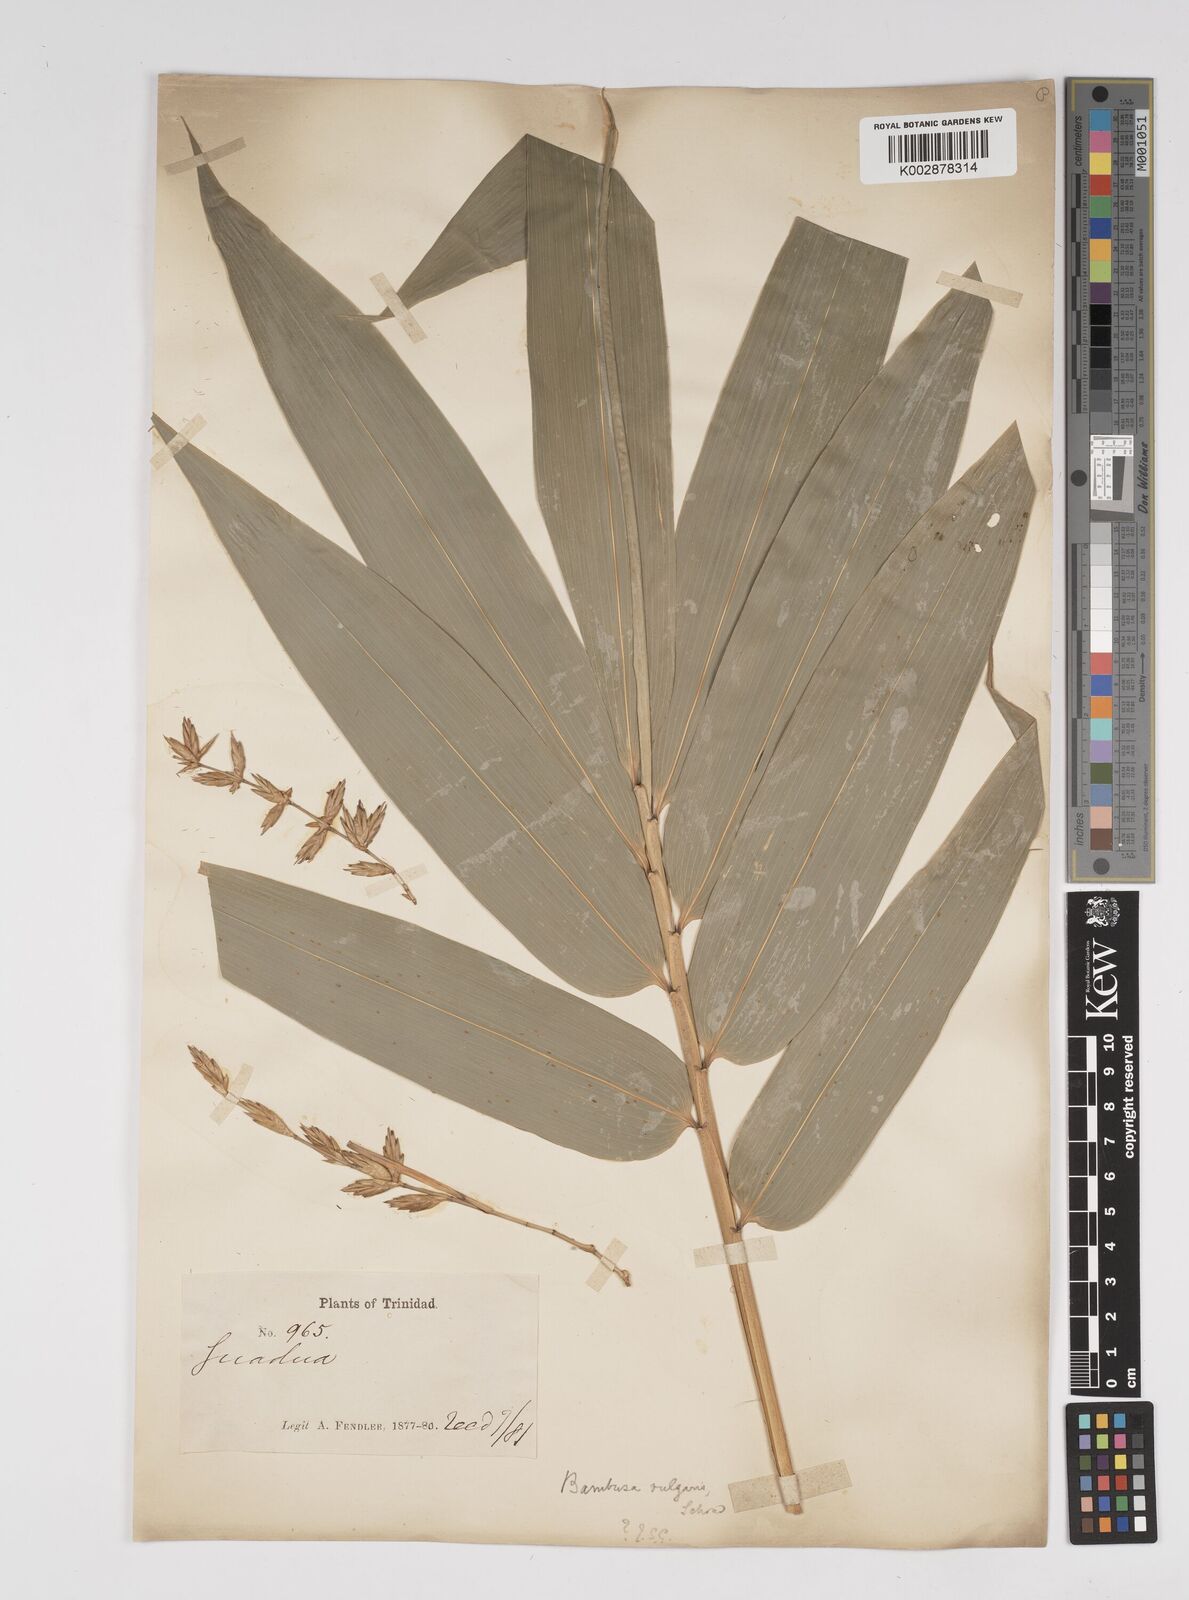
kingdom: Plantae
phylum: Tracheophyta
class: Liliopsida
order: Poales
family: Poaceae
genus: Bambusa
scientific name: Bambusa vulgaris
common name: Common bamboo
